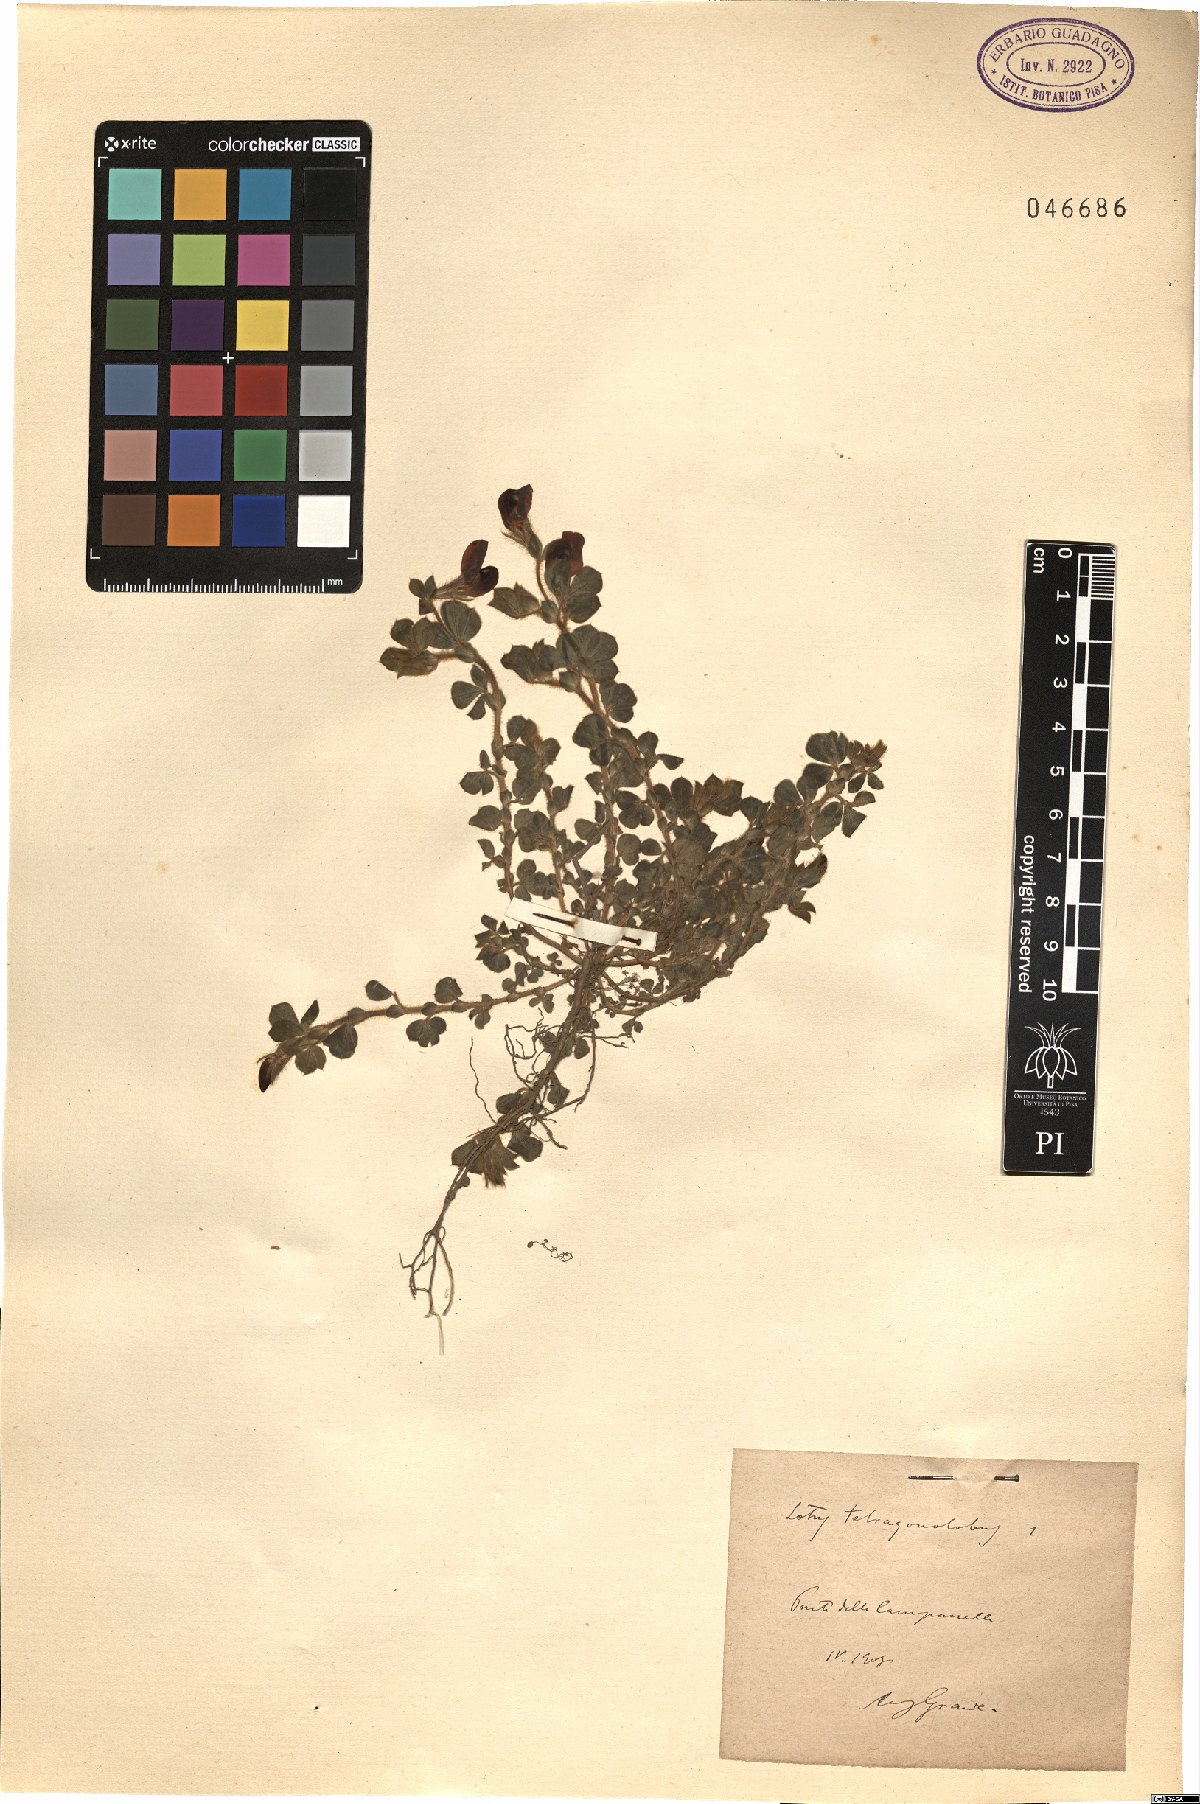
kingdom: Plantae
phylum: Tracheophyta
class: Magnoliopsida
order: Fabales
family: Fabaceae
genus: Lotus
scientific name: Lotus tetragonolobus
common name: Asparagus-pea
